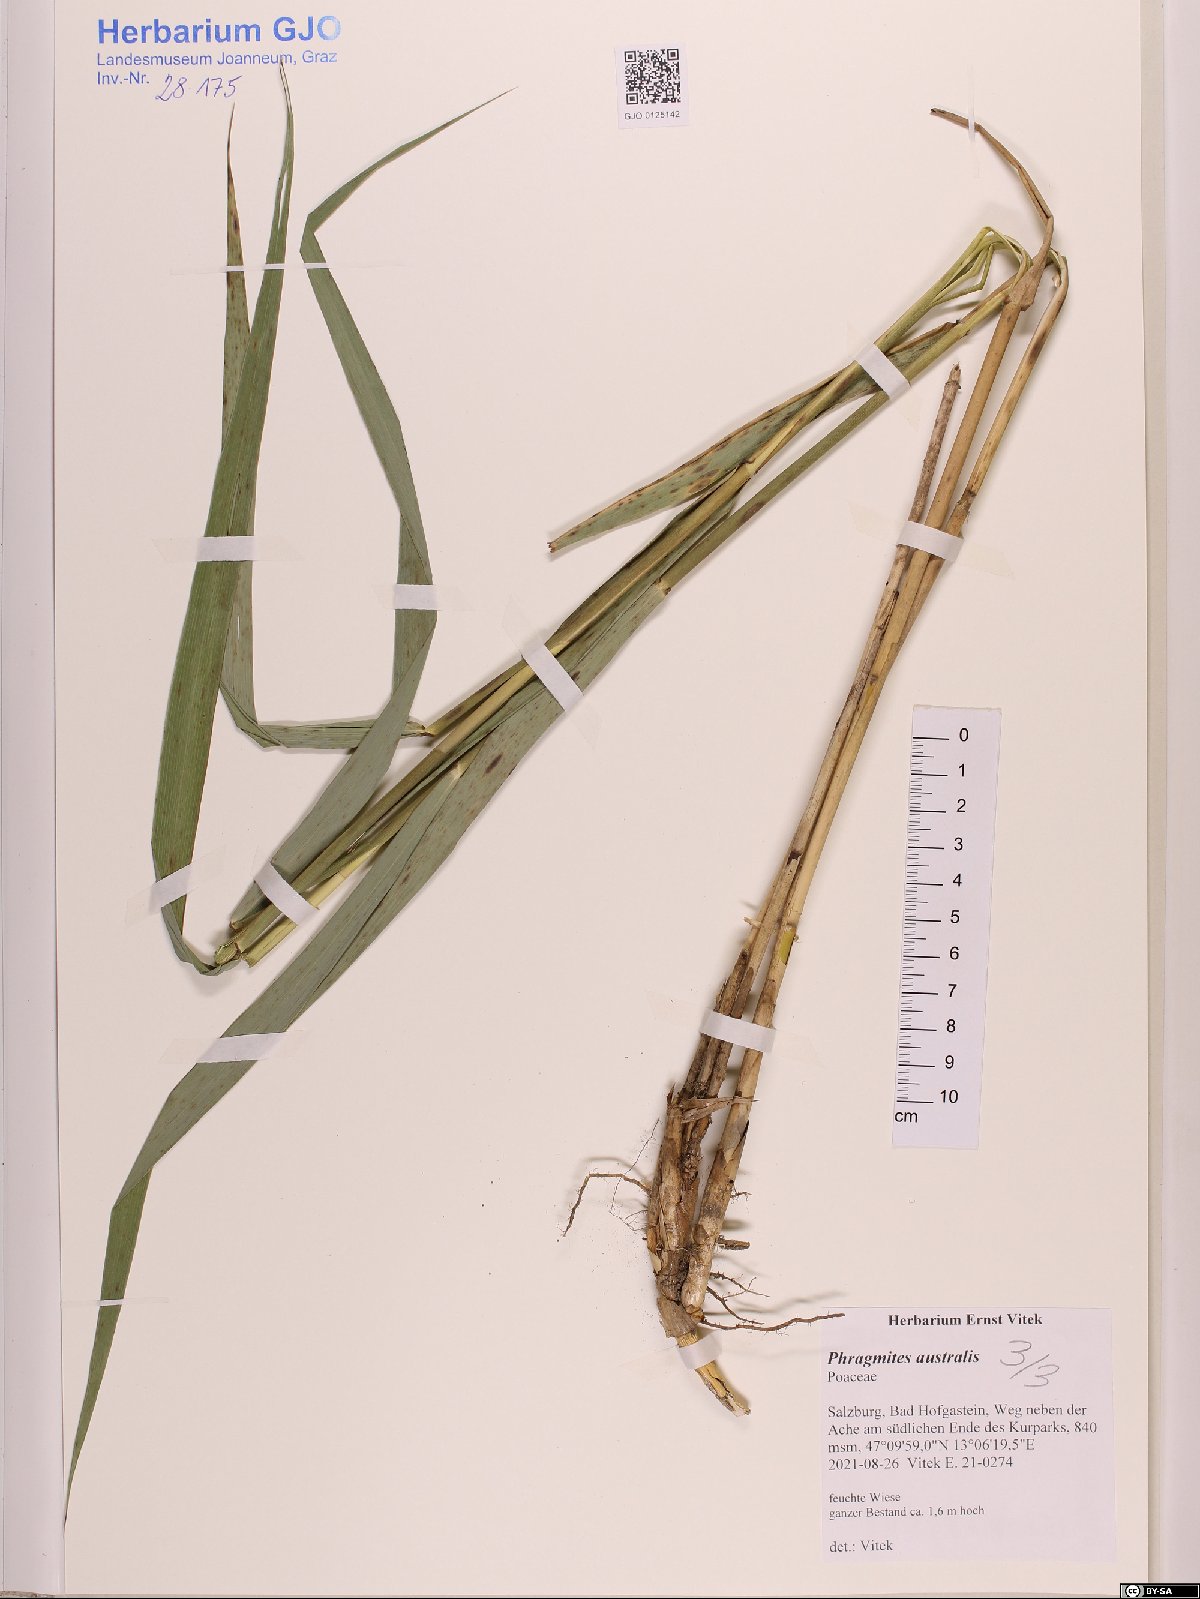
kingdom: Plantae
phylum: Tracheophyta
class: Liliopsida
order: Poales
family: Poaceae
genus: Phragmites
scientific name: Phragmites australis
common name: Common reed
